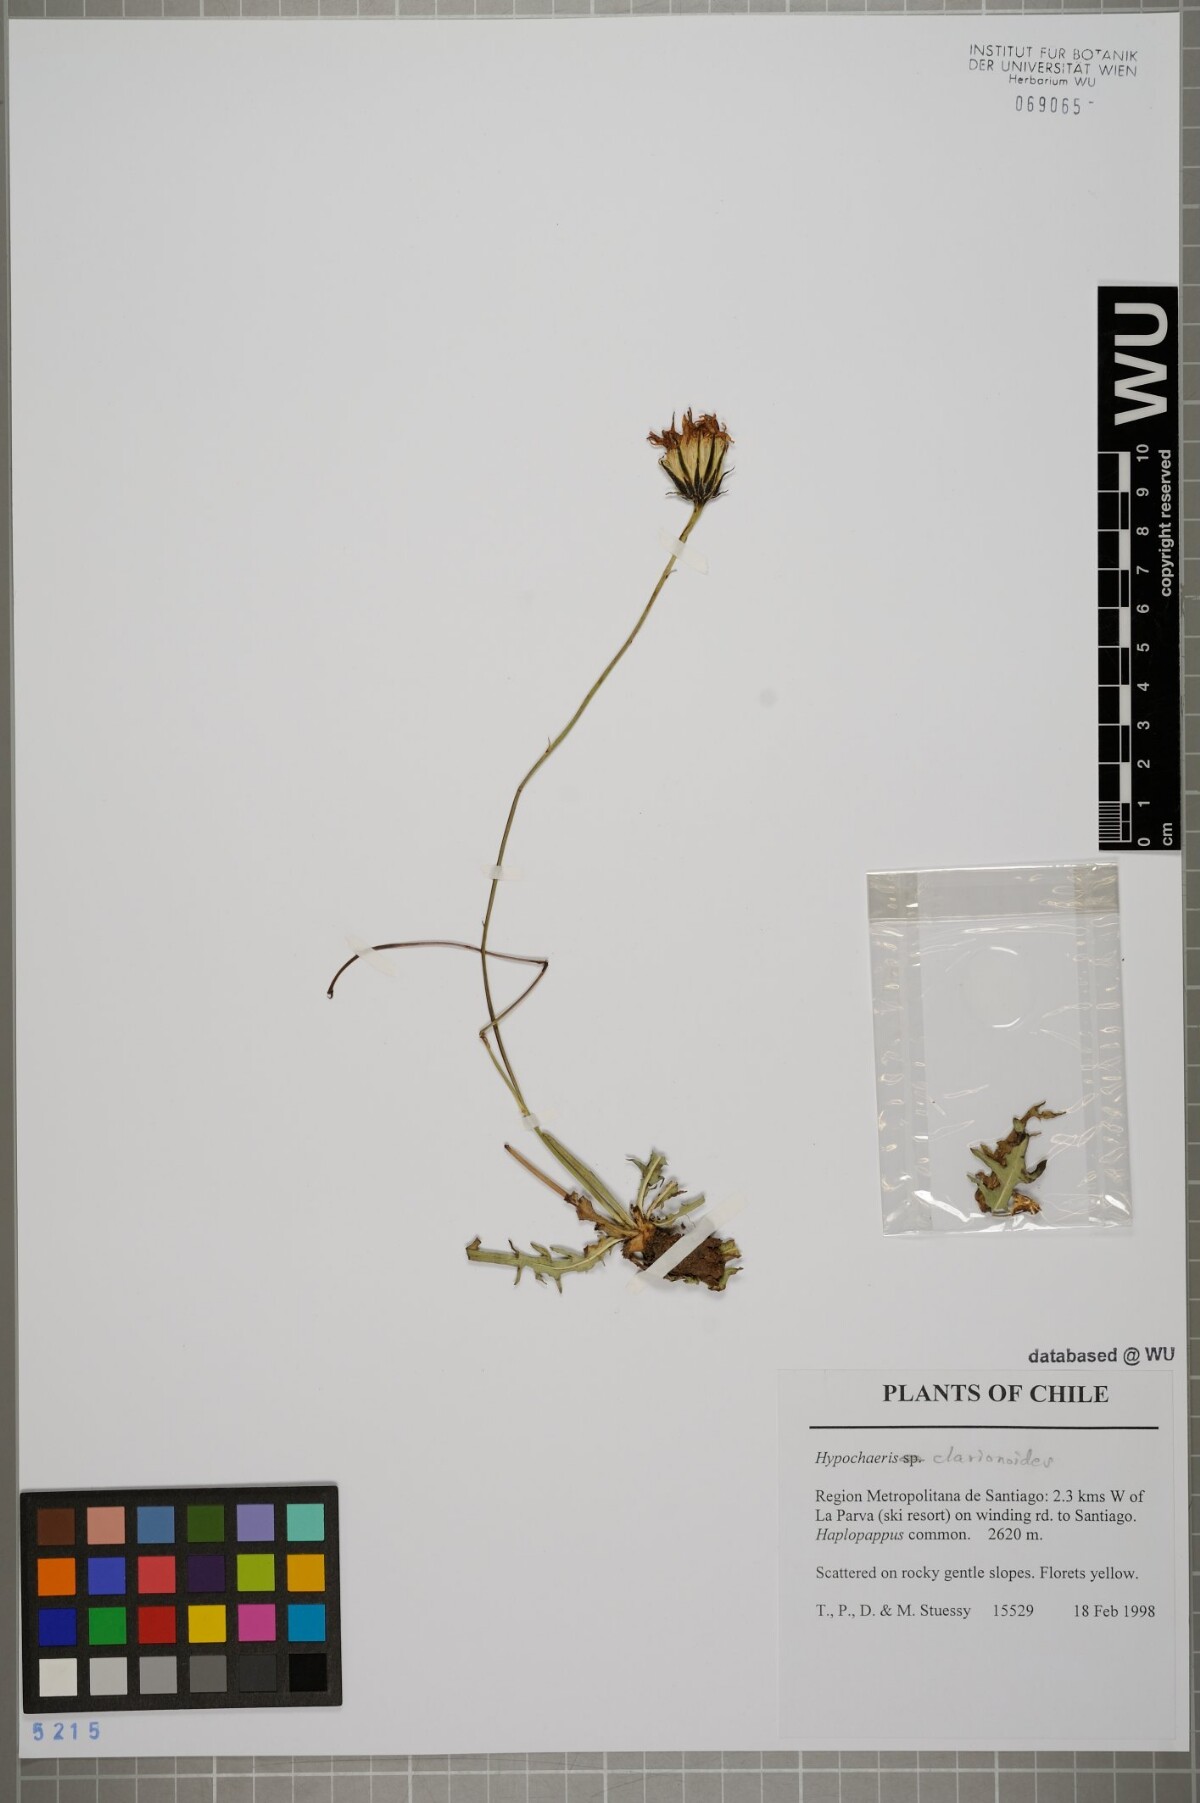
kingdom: Plantae
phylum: Tracheophyta
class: Magnoliopsida
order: Asterales
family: Asteraceae
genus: Hypochaeris
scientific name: Hypochaeris clarionoides
